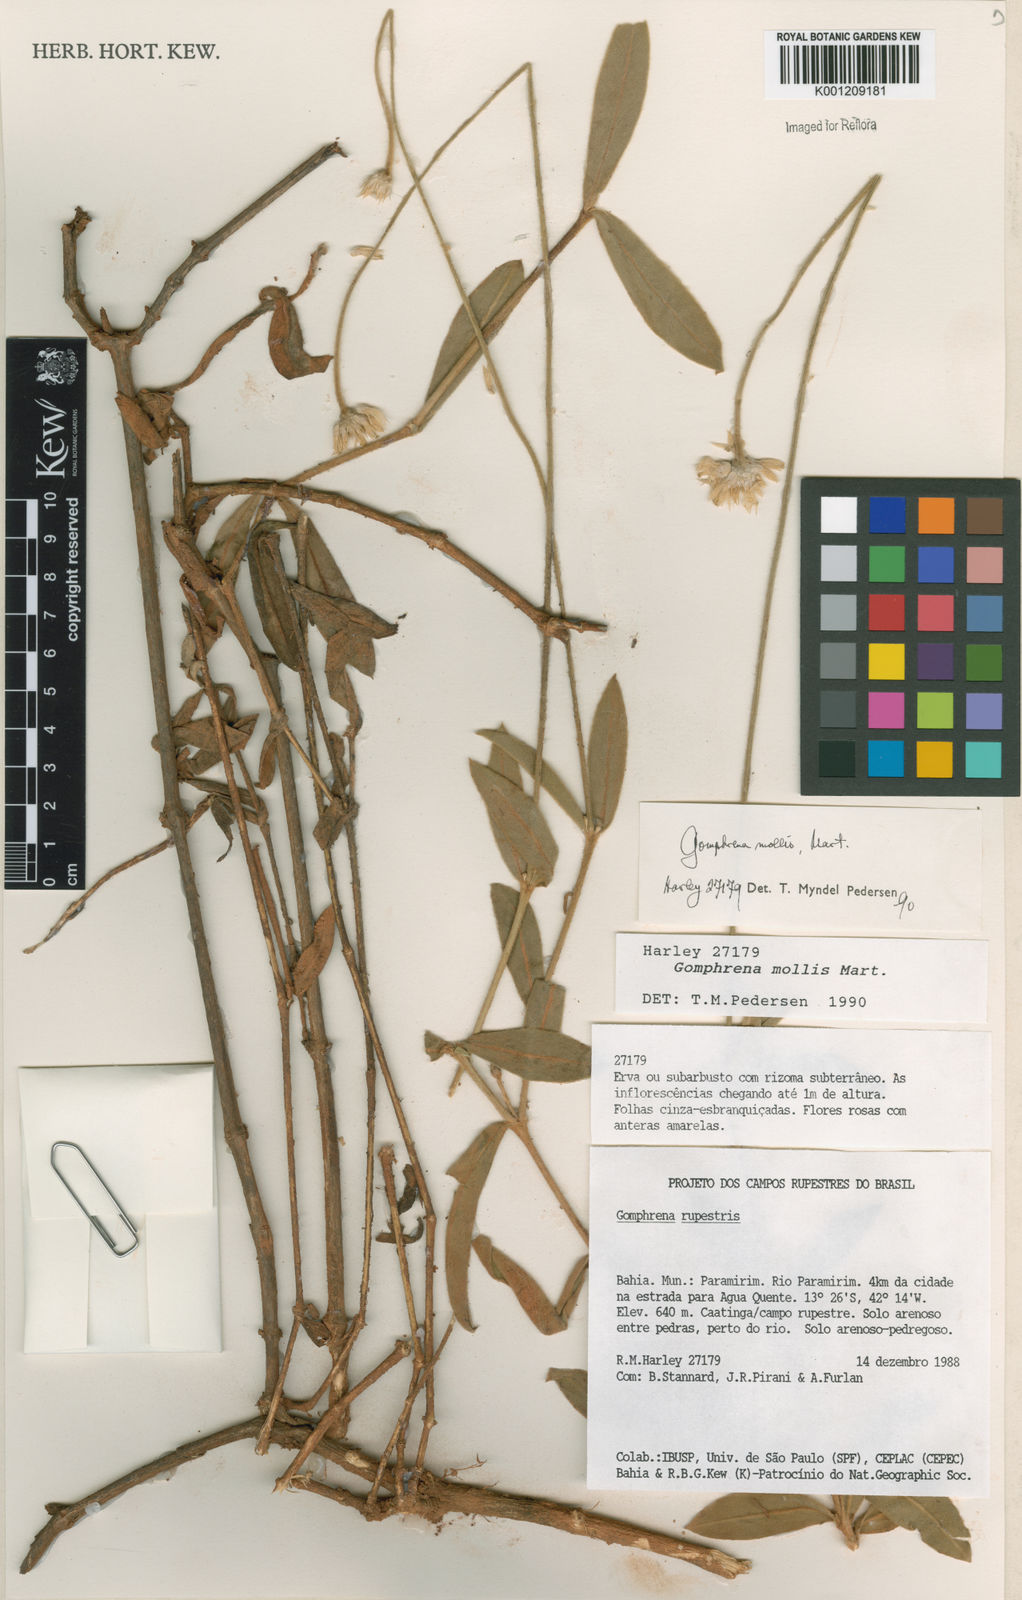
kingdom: Plantae
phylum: Tracheophyta
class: Magnoliopsida
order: Caryophyllales
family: Amaranthaceae
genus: Gomphrena
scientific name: Gomphrena mollis
